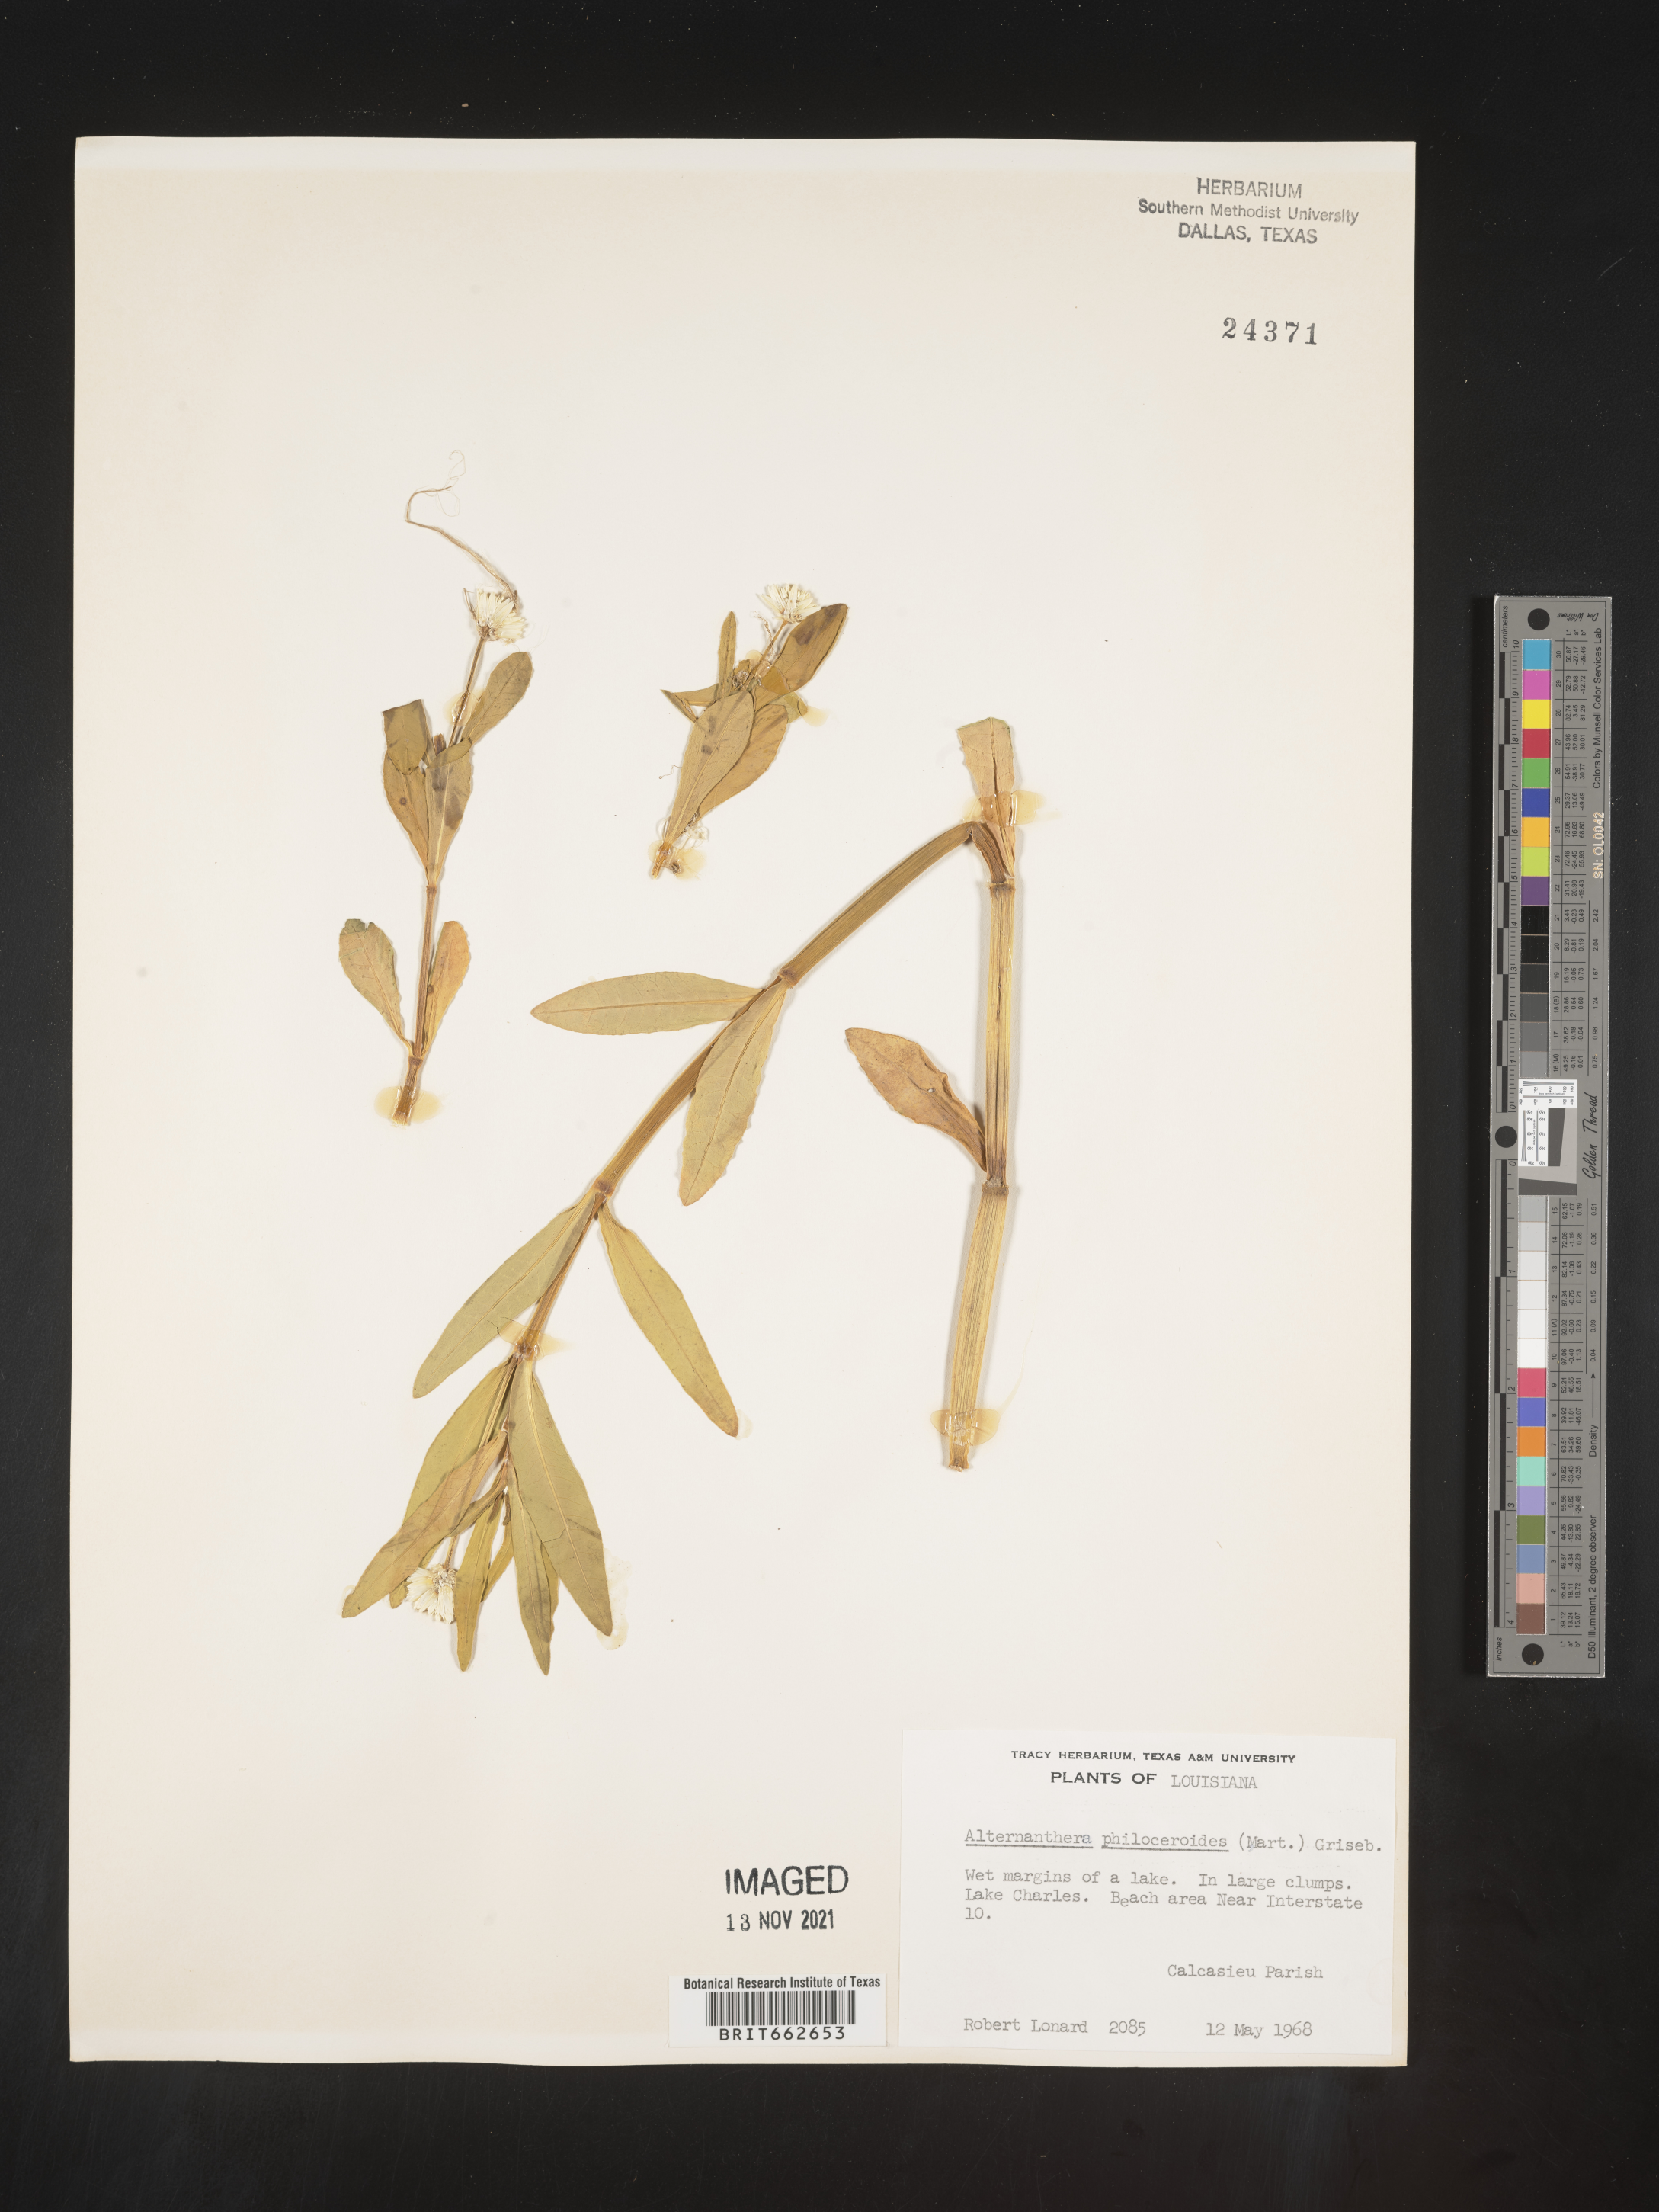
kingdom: Plantae
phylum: Tracheophyta
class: Magnoliopsida
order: Caryophyllales
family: Amaranthaceae
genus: Alternanthera
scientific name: Alternanthera philoxeroides
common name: Alligatorweed
